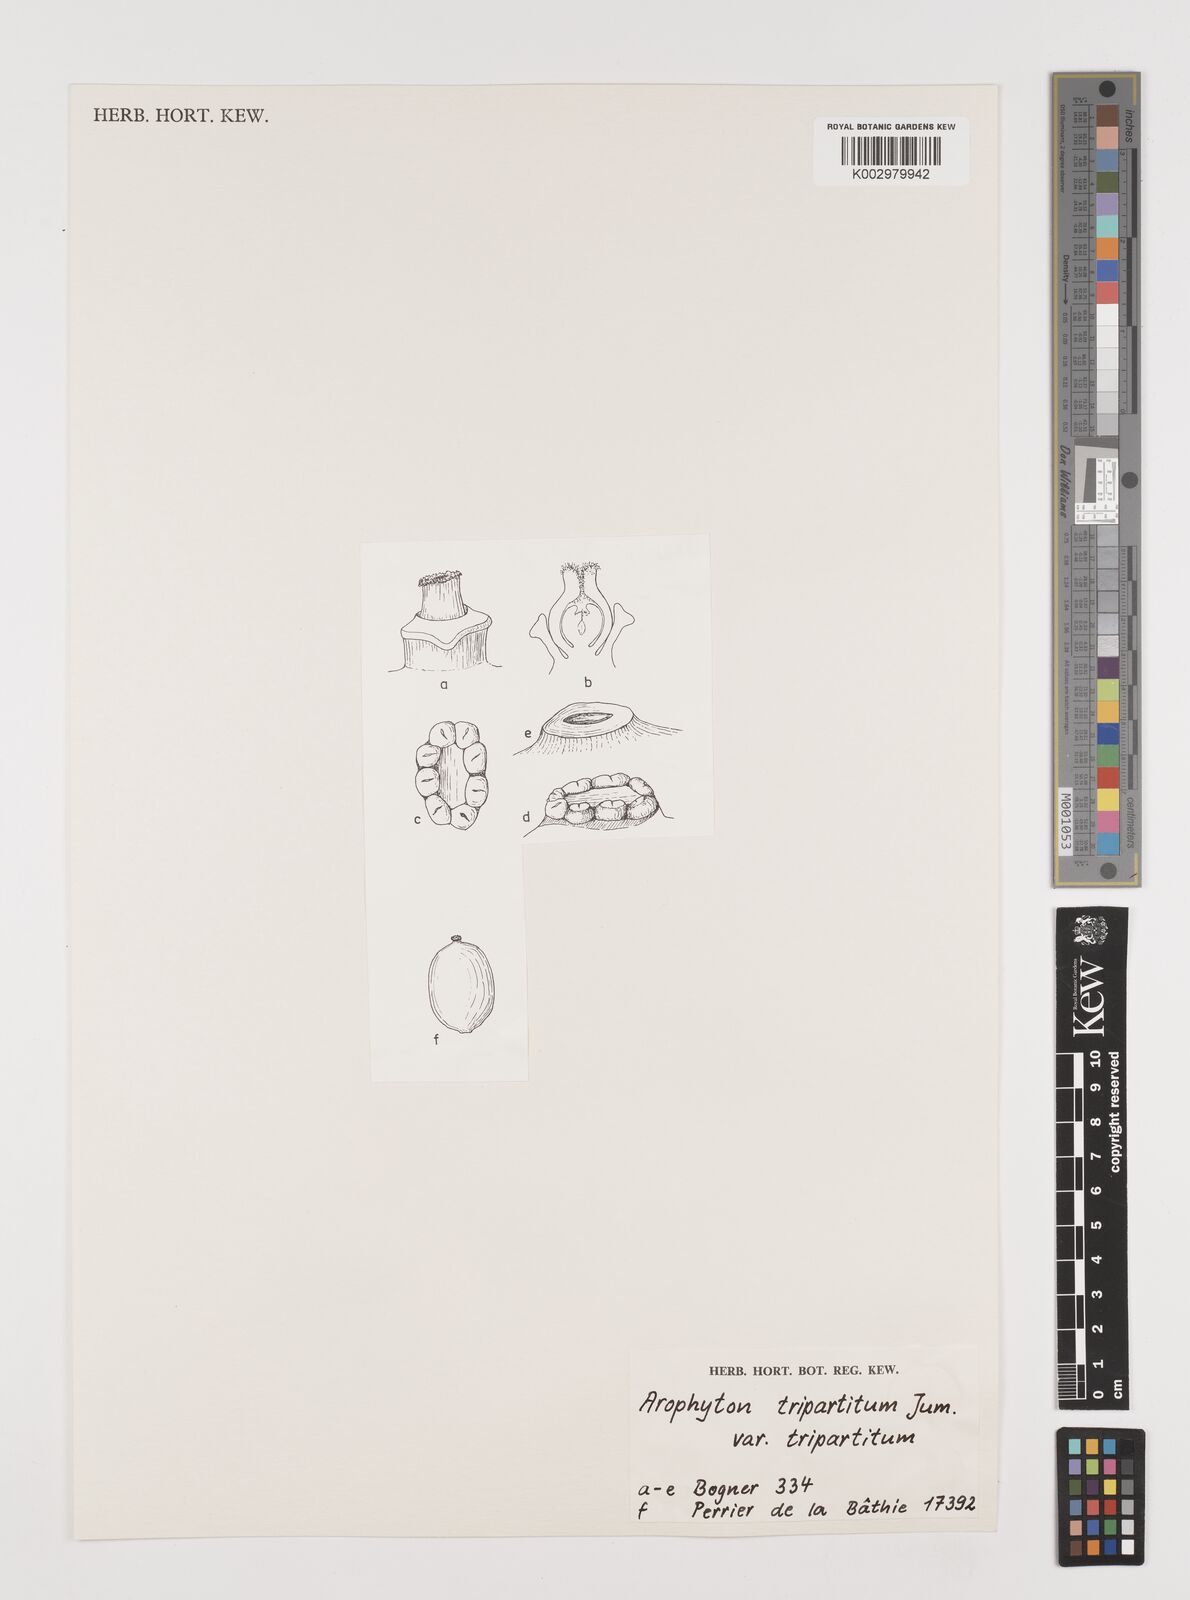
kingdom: Plantae
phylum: Tracheophyta
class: Liliopsida
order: Alismatales
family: Araceae
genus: Arophyton
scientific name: Arophyton tripartitum
